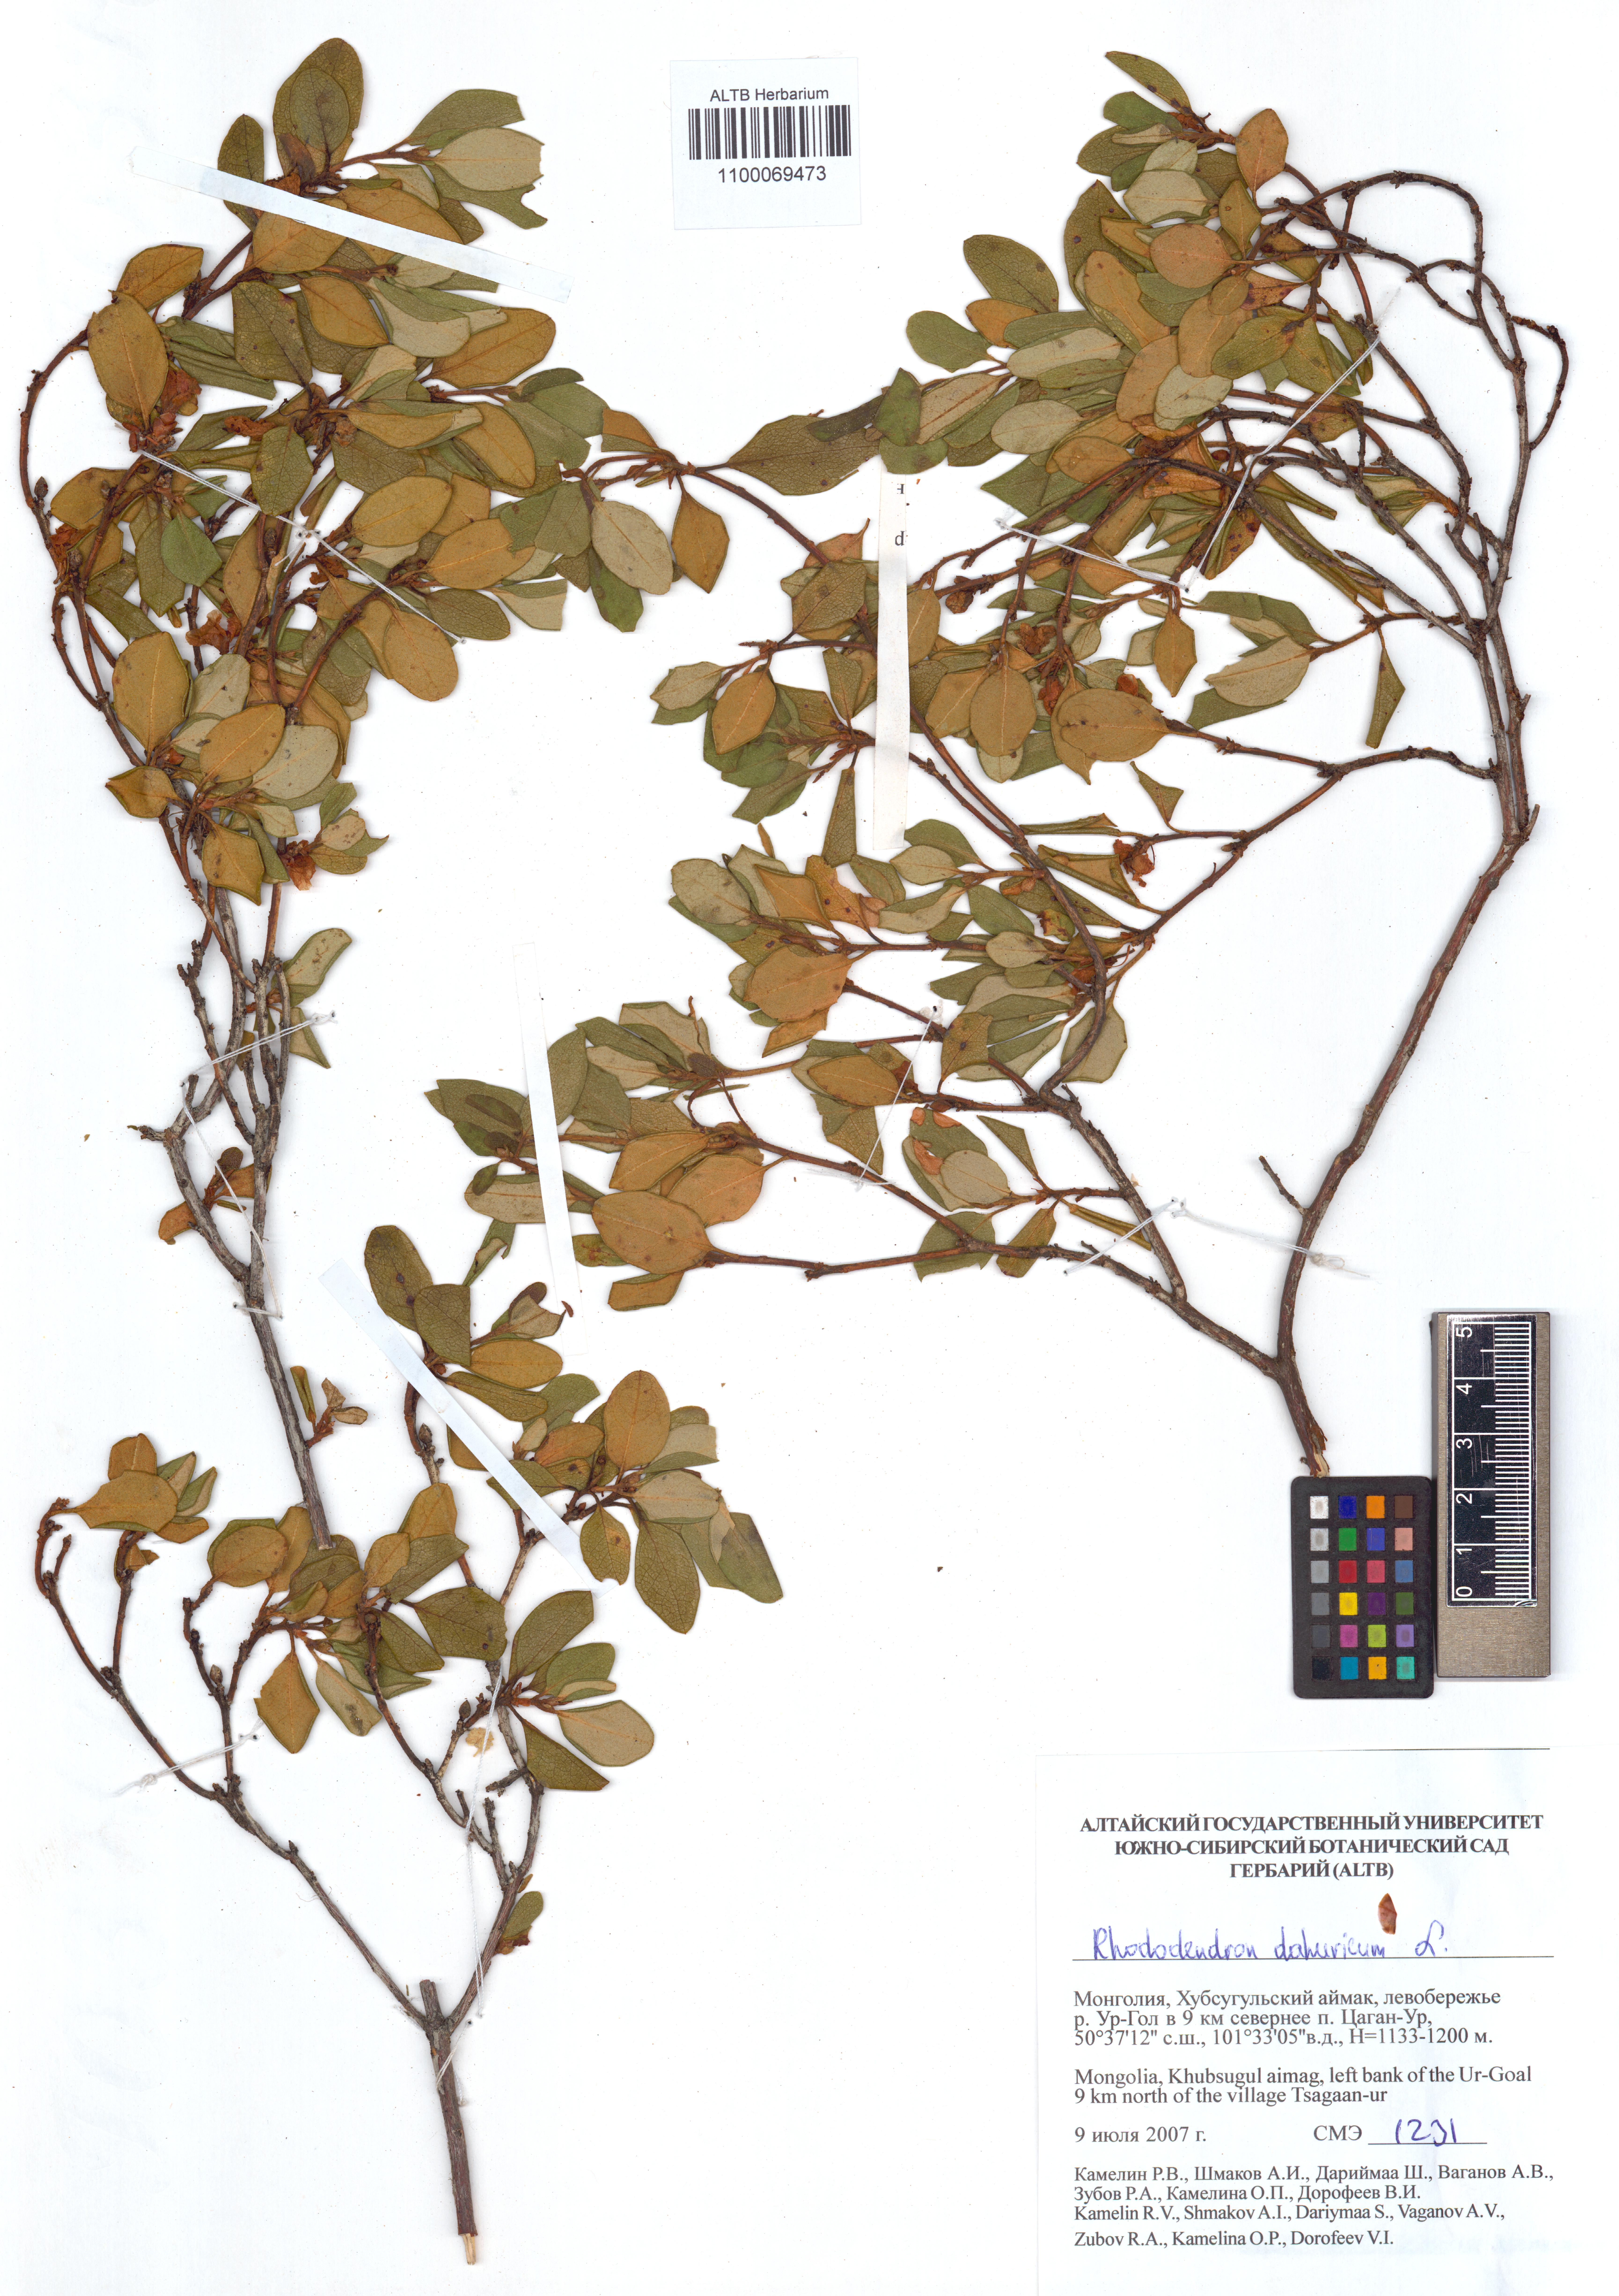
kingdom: Plantae
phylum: Tracheophyta
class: Magnoliopsida
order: Ericales
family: Ericaceae
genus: Rhododendron
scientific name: Rhododendron dauricum
